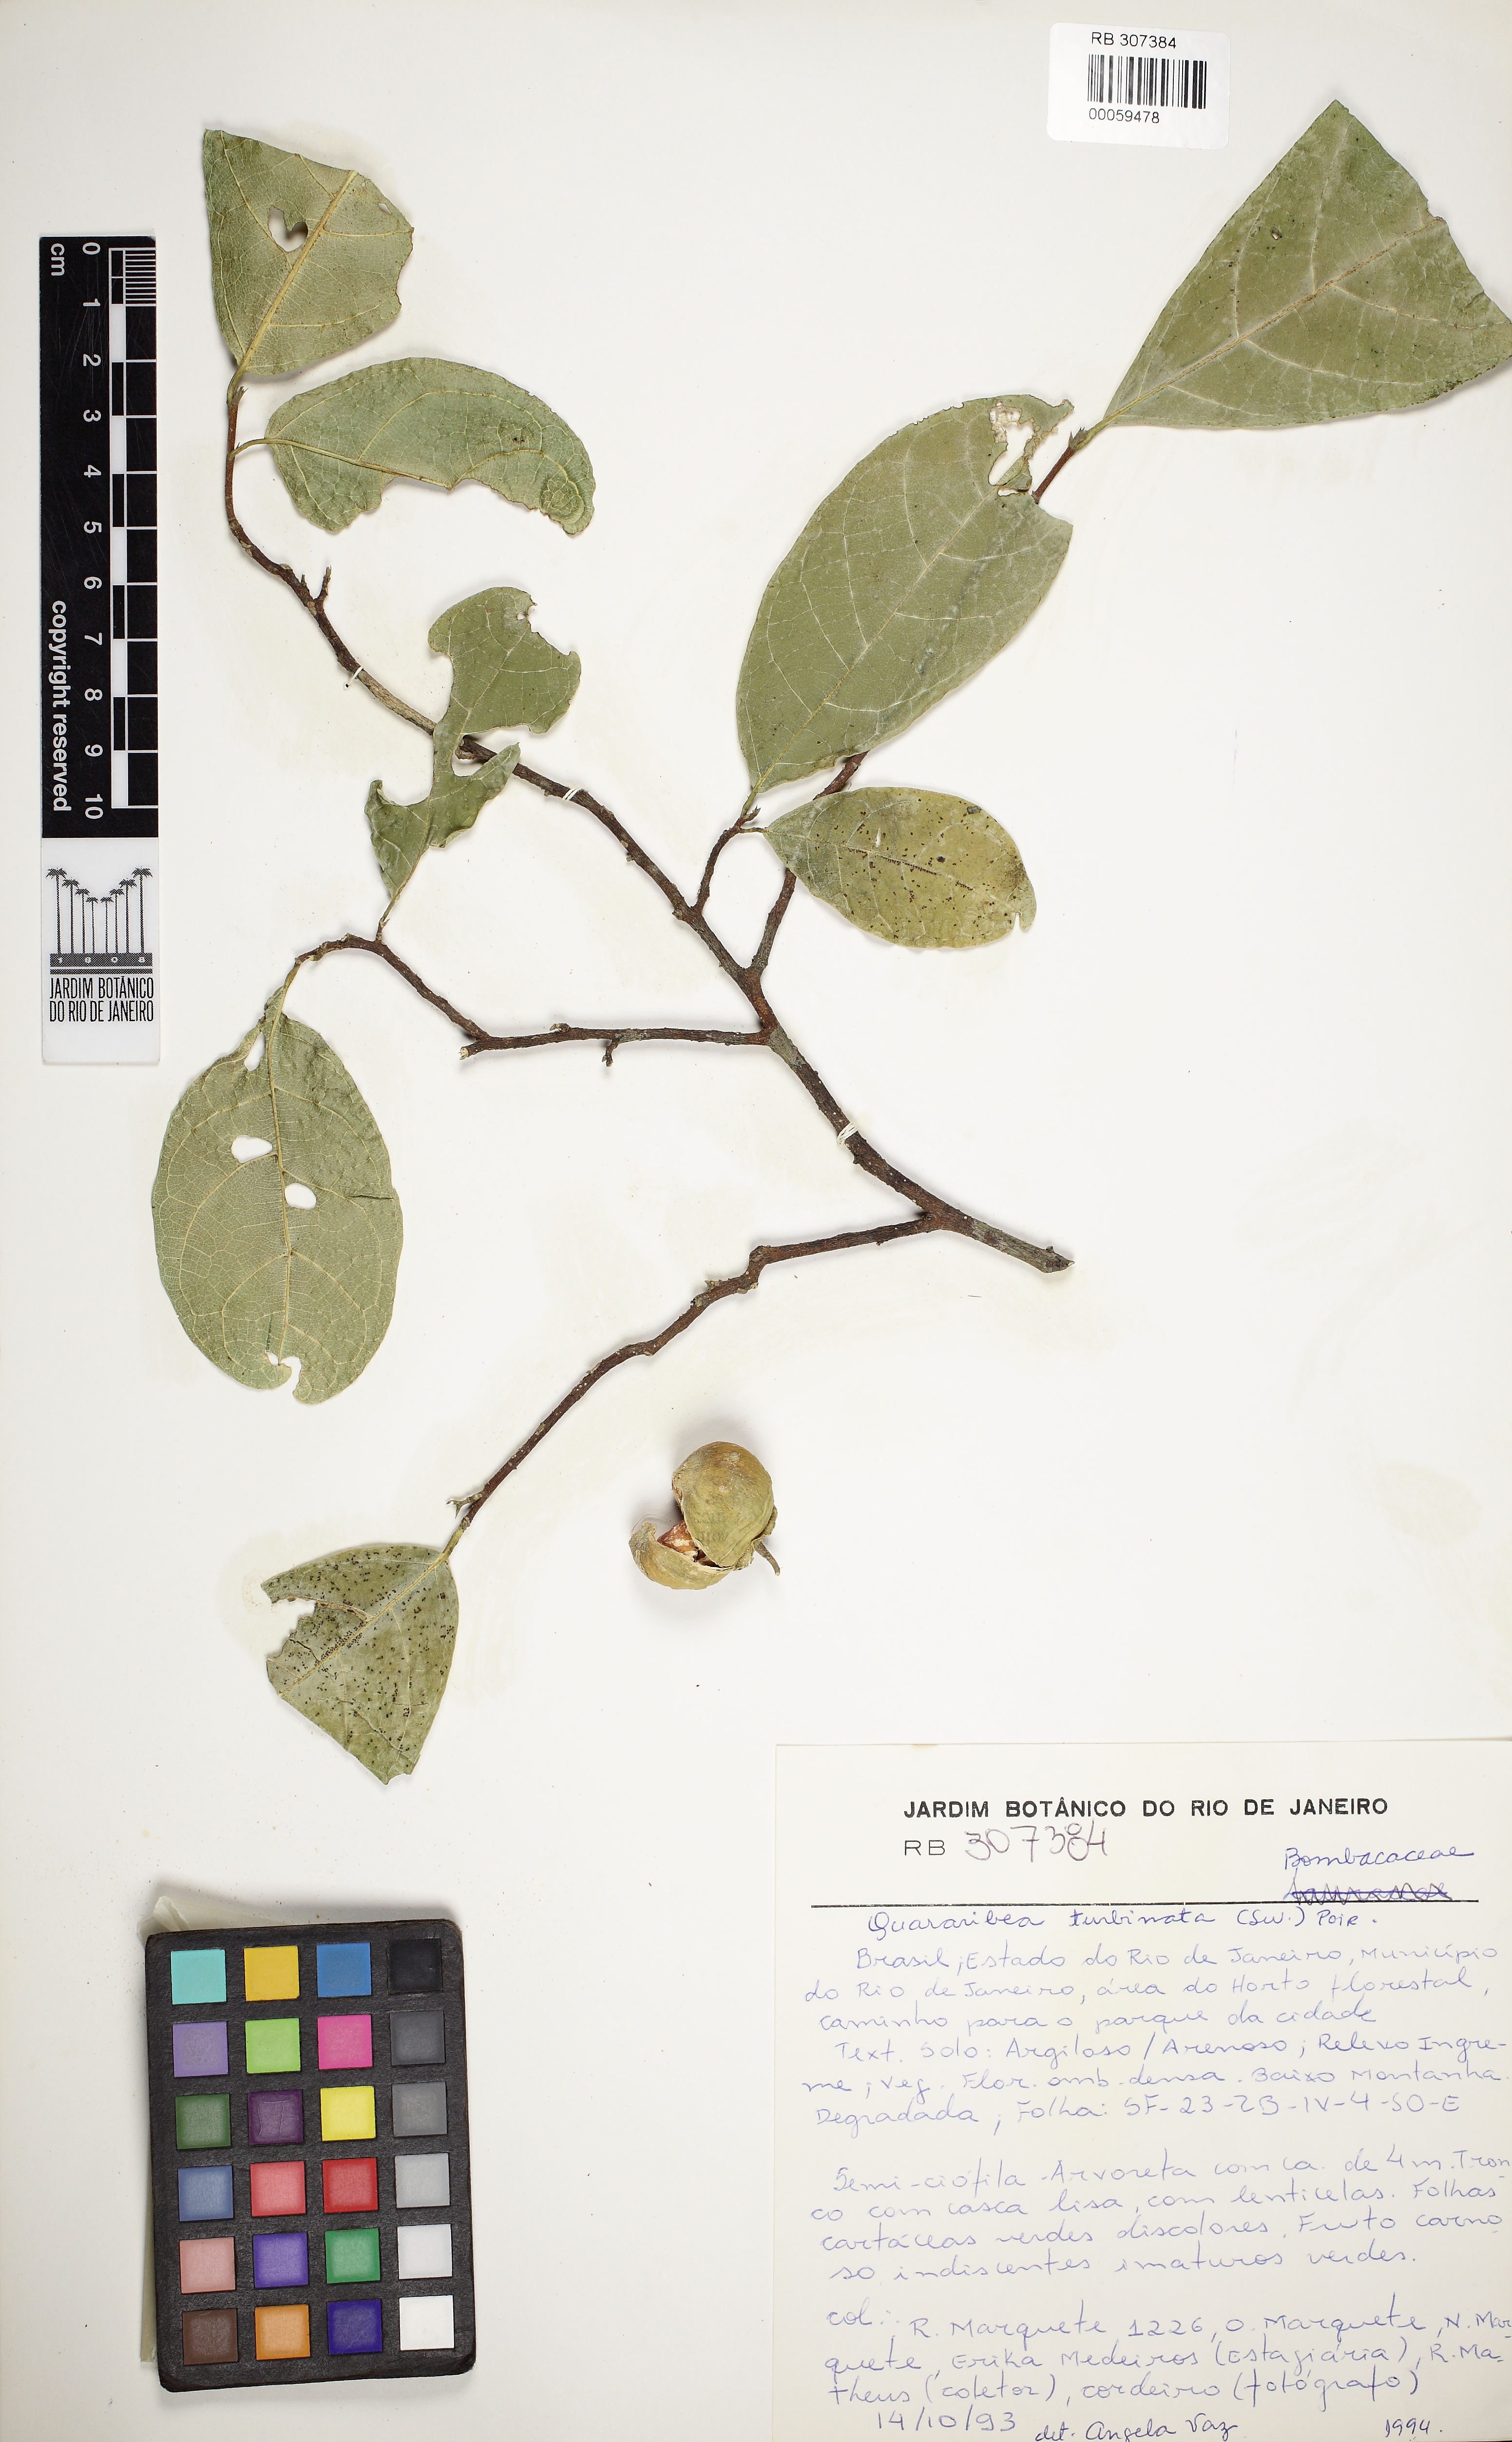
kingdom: Plantae
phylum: Tracheophyta
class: Magnoliopsida
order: Malvales
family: Malvaceae
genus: Quararibea
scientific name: Quararibea penduliflora
